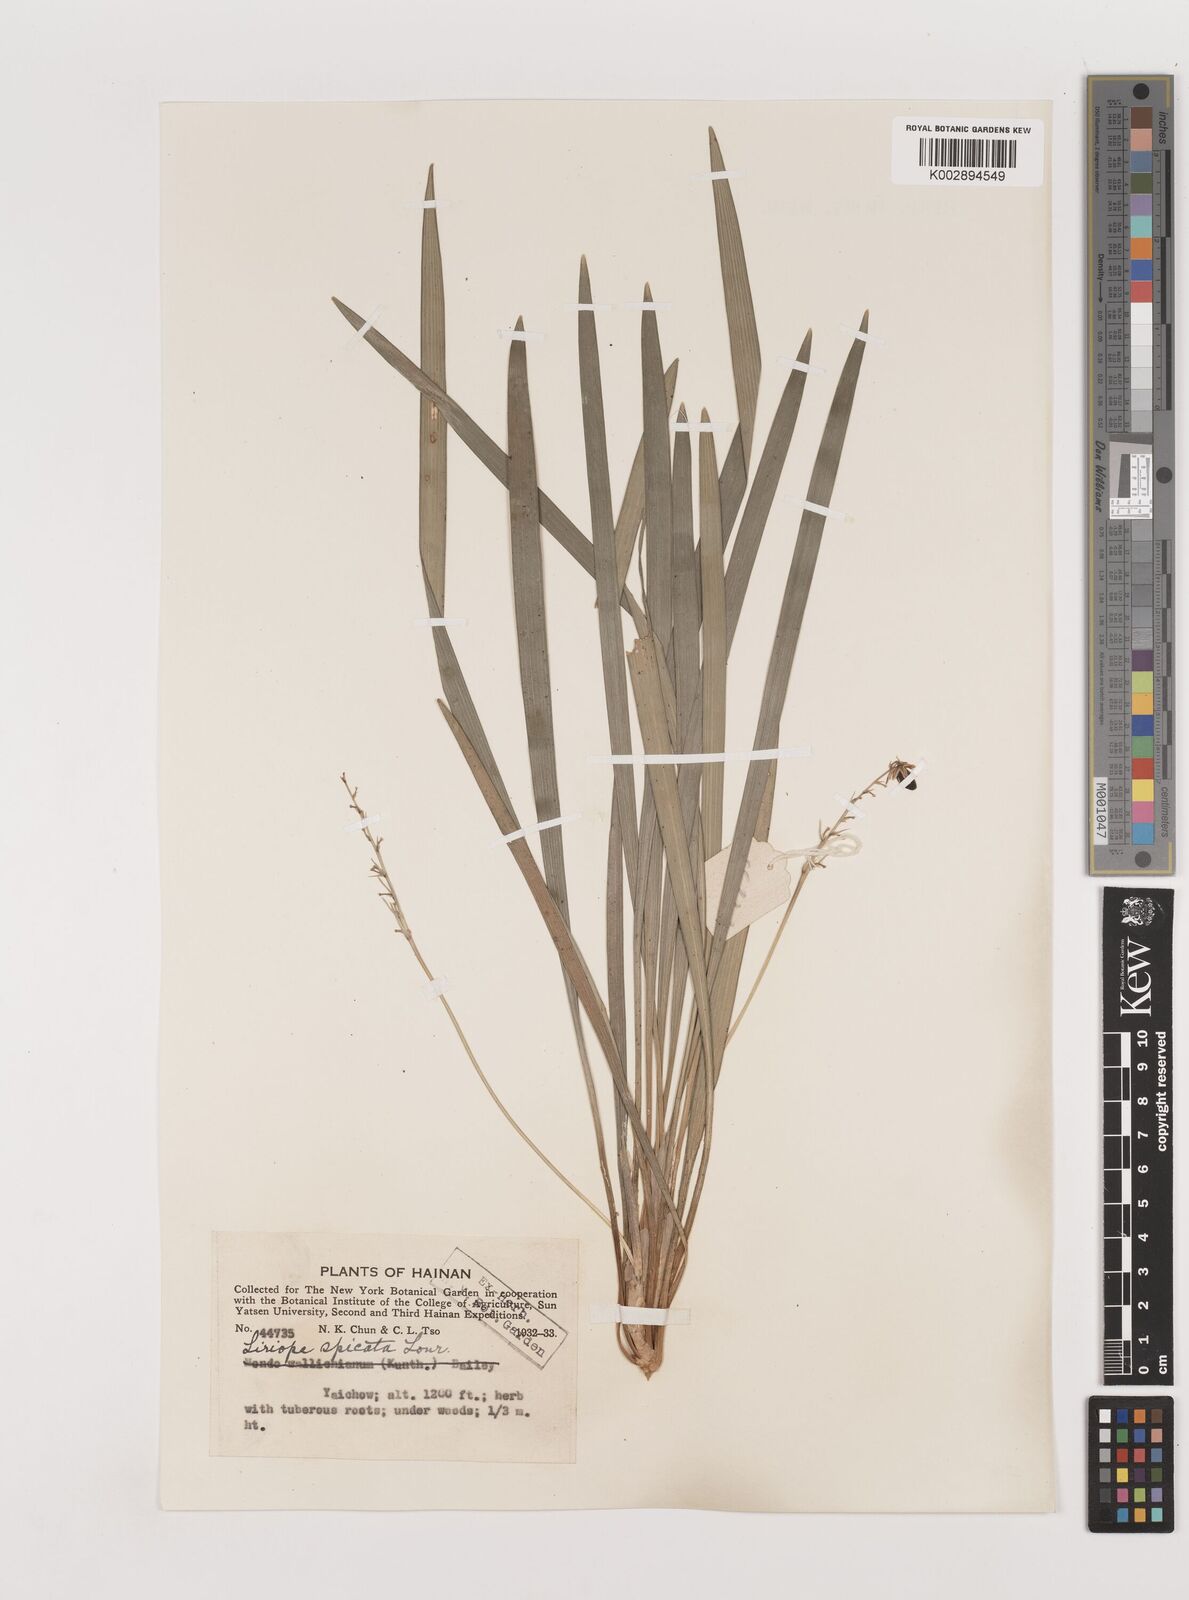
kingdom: Plantae
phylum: Tracheophyta
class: Liliopsida
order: Asparagales
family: Asparagaceae
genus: Liriope
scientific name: Liriope spicata
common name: Creeping liriope
